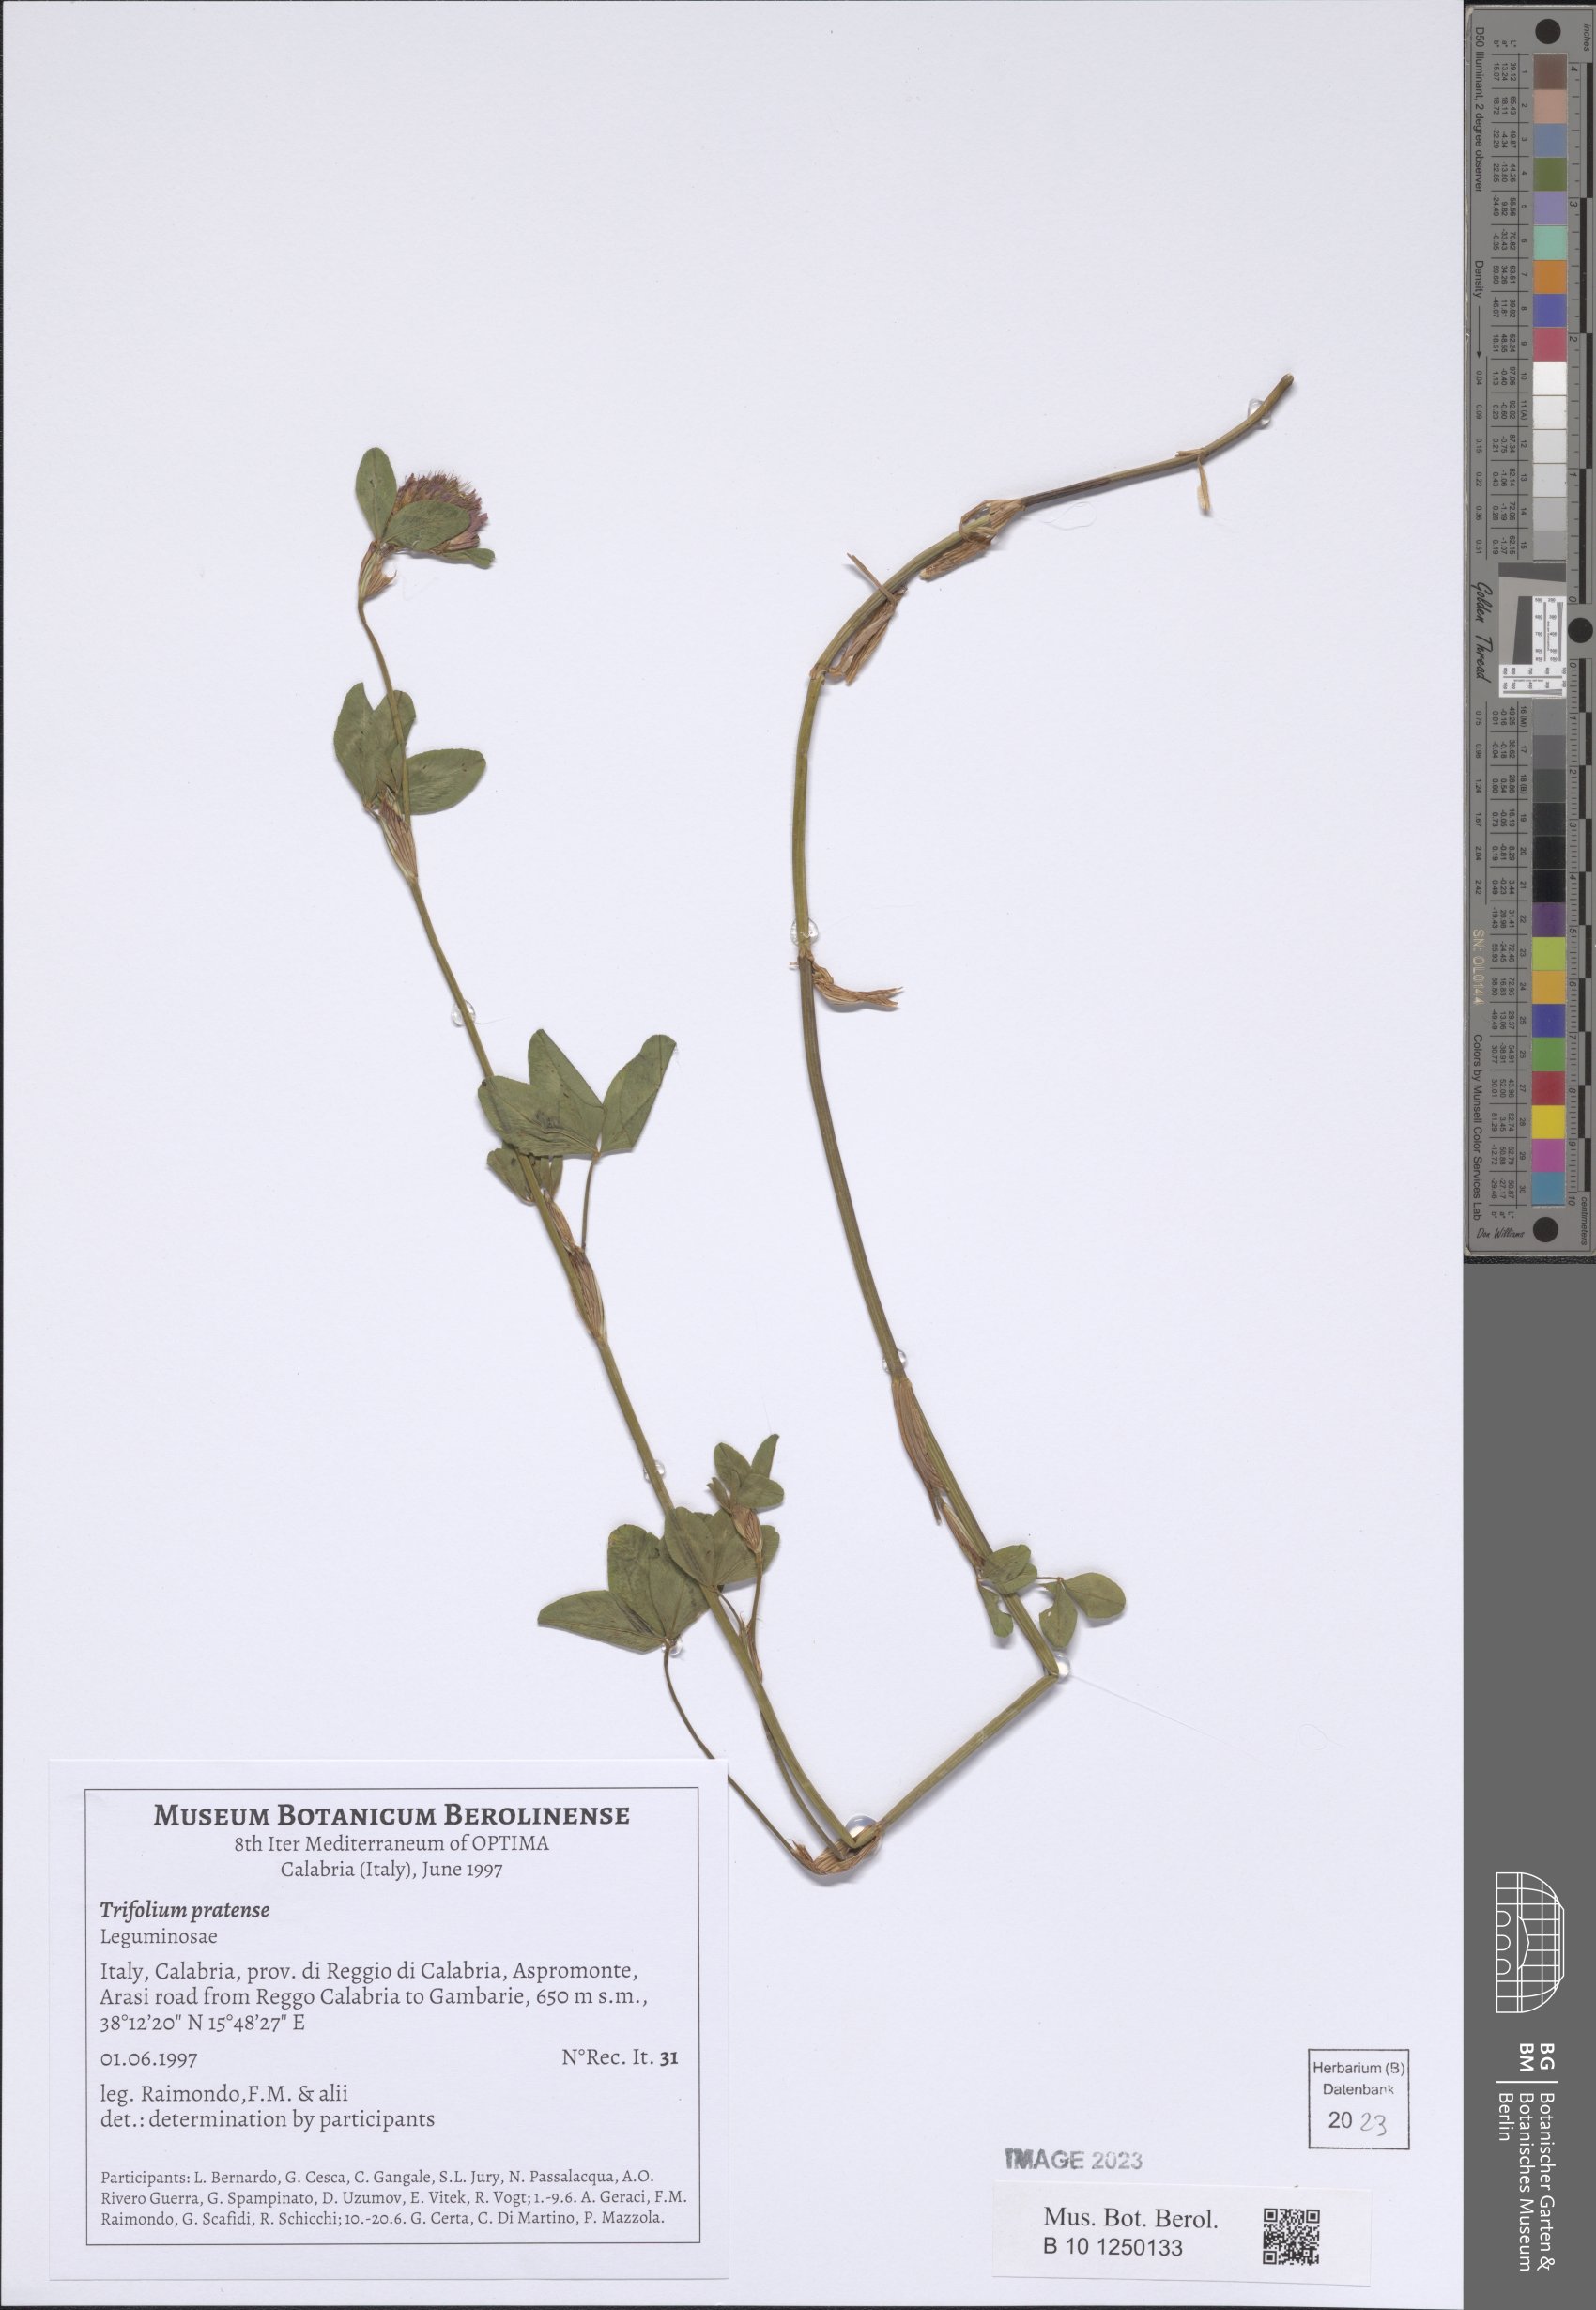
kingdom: Plantae
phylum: Tracheophyta
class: Magnoliopsida
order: Fabales
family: Fabaceae
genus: Trifolium
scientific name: Trifolium pratense
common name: Red clover
